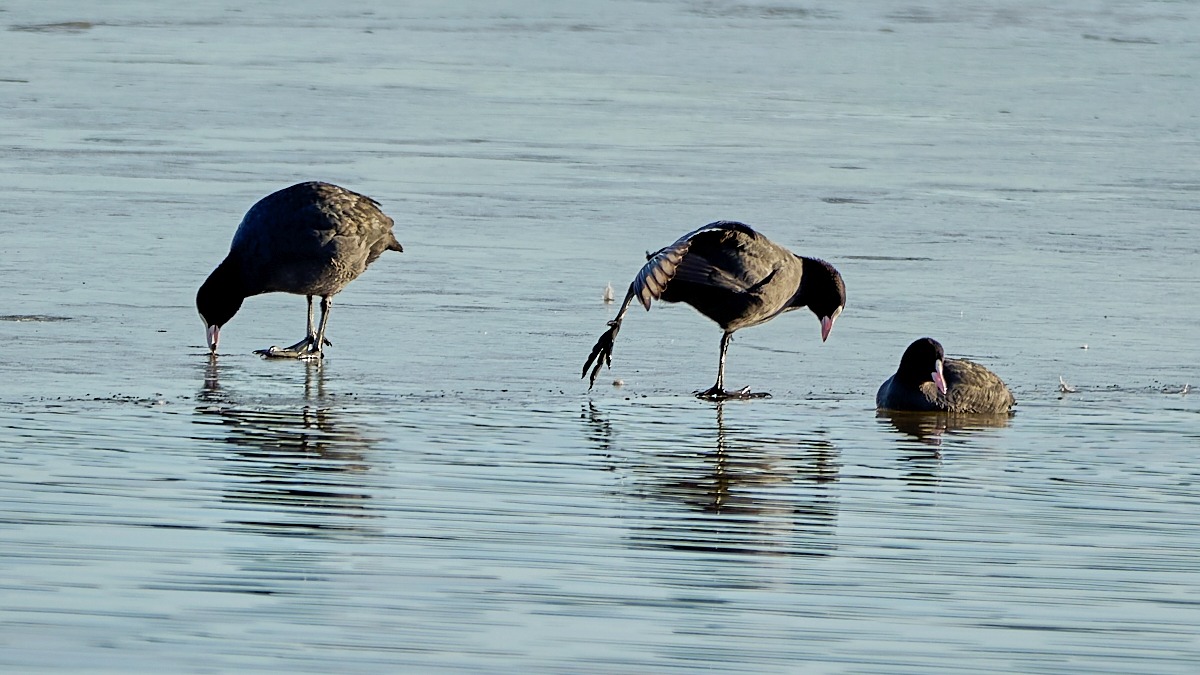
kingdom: Animalia
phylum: Chordata
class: Aves
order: Gruiformes
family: Rallidae
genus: Fulica
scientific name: Fulica atra
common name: Blishøne
